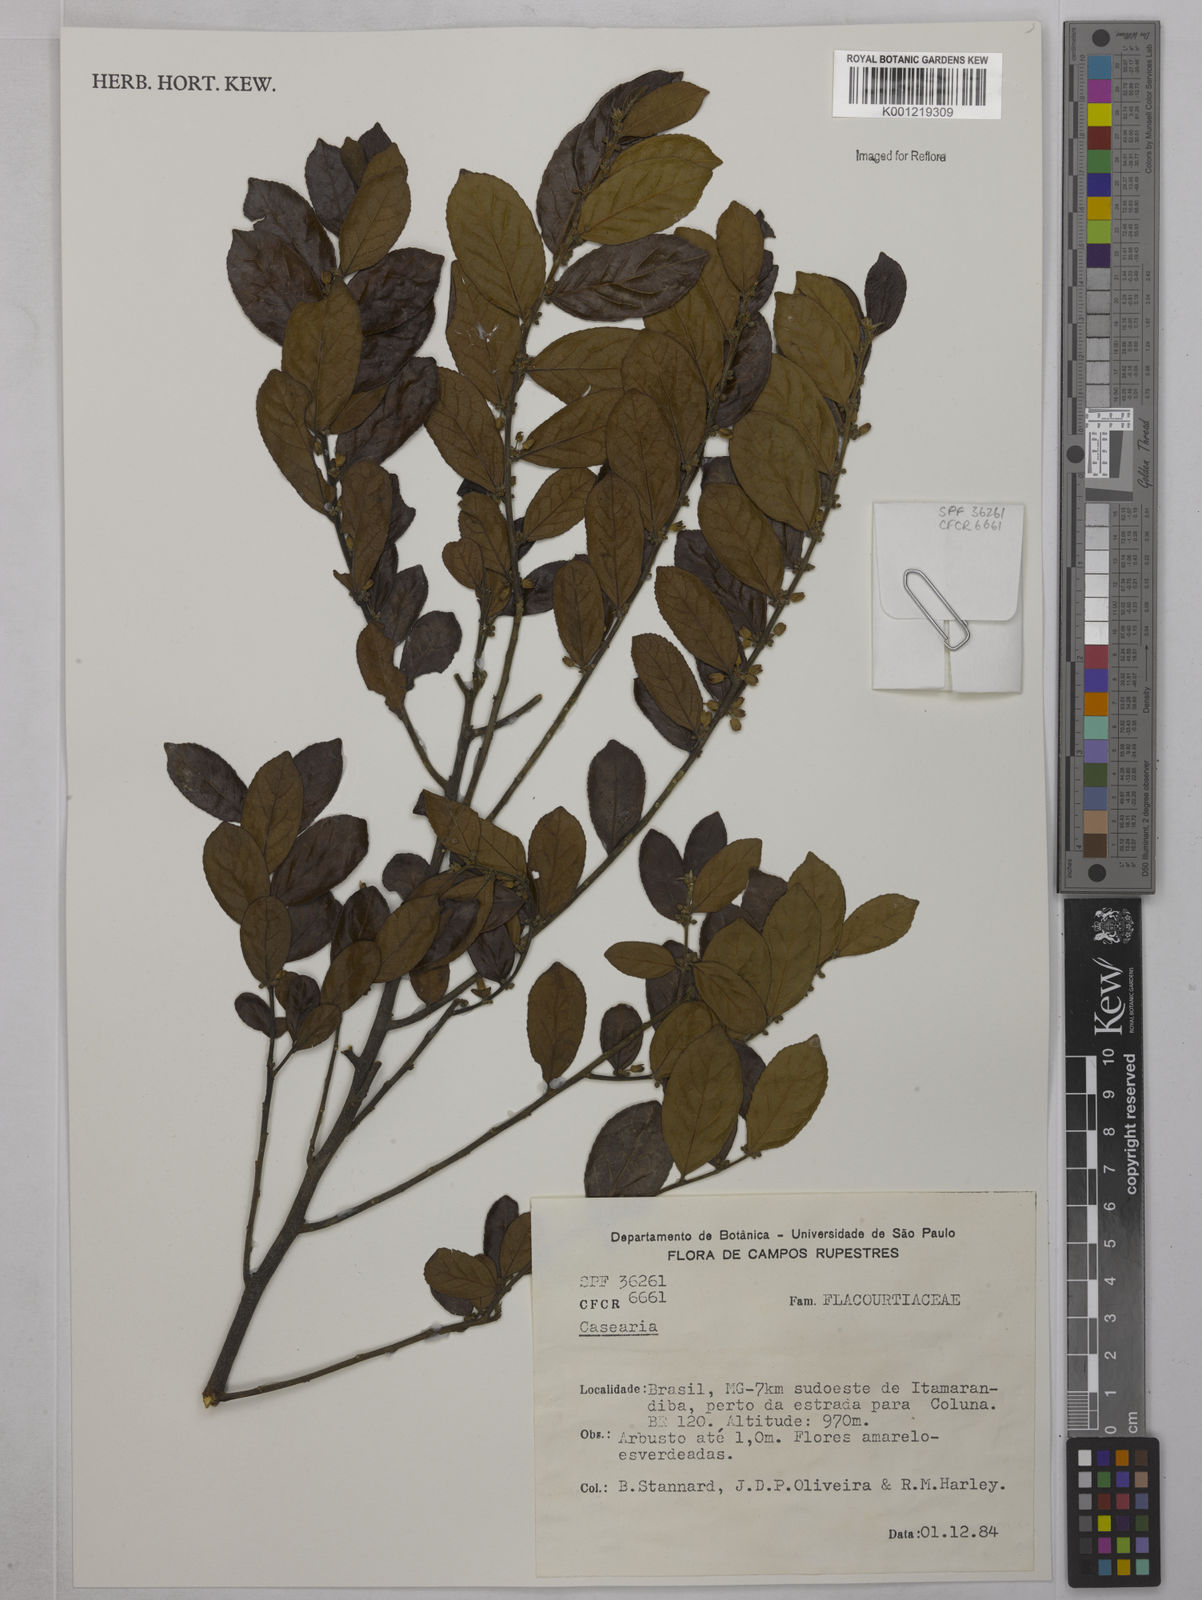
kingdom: Plantae
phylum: Tracheophyta
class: Magnoliopsida
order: Malpighiales
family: Salicaceae
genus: Casearia
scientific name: Casearia
